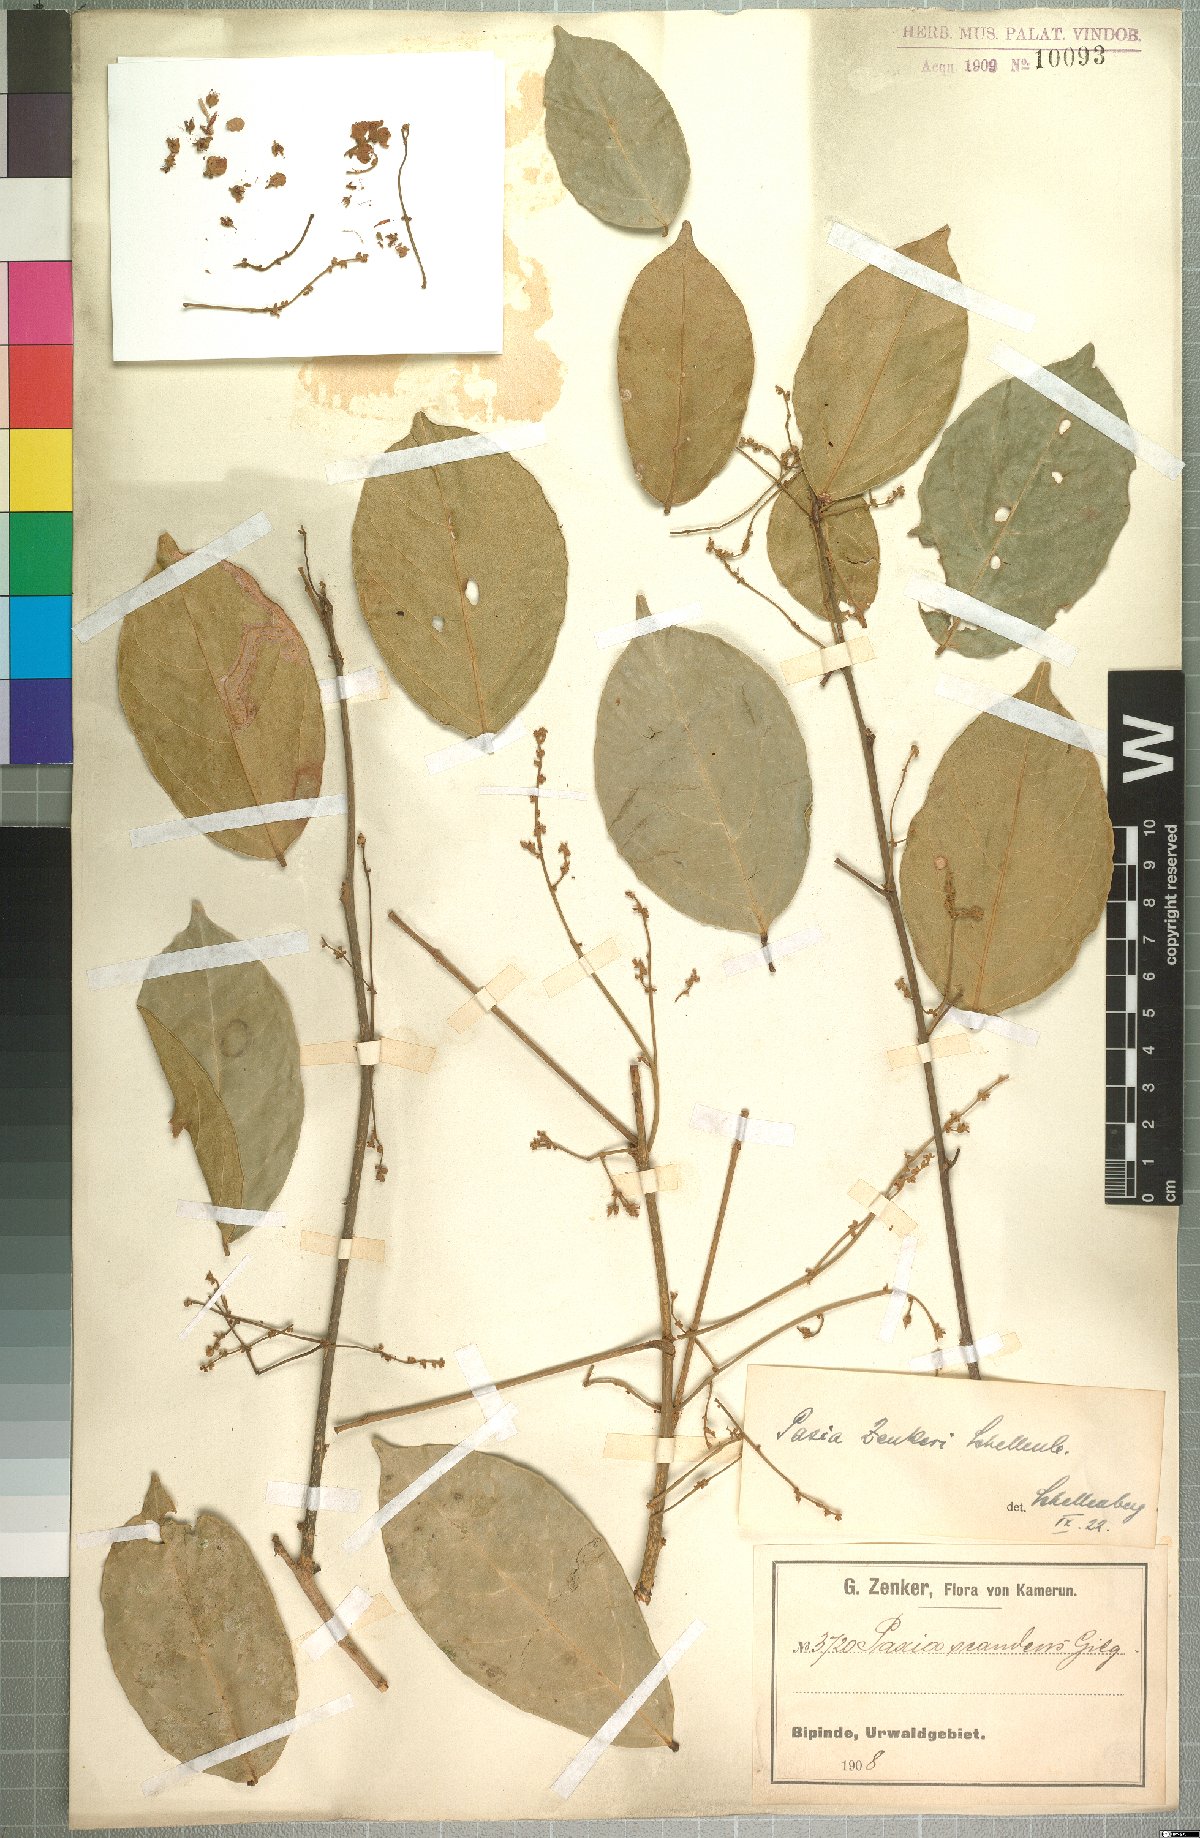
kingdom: Plantae
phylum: Tracheophyta
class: Magnoliopsida
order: Oxalidales
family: Connaraceae
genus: Rourea
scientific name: Rourea myriantha
